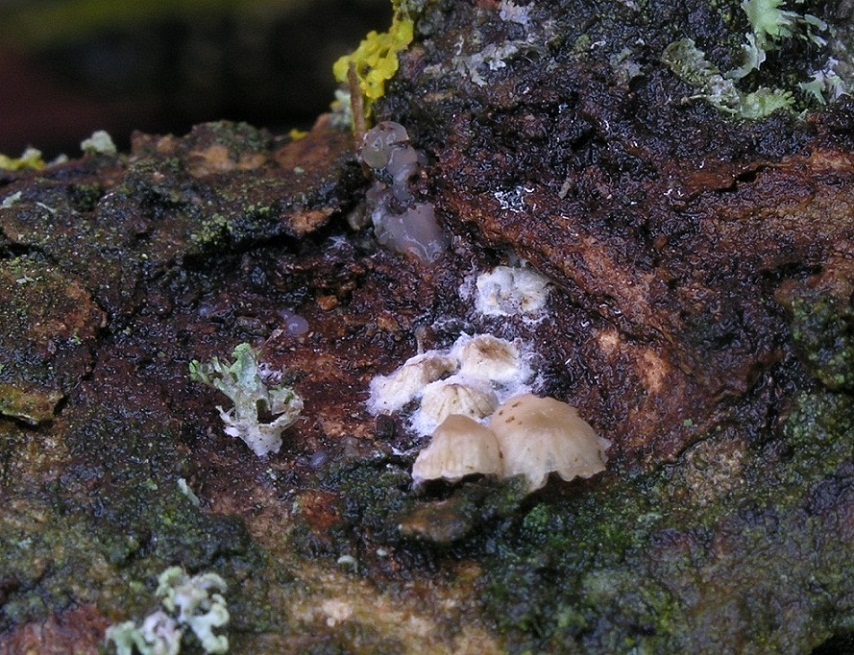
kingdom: Fungi
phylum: Basidiomycota
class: Agaricomycetes
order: Agaricales
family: Porotheleaceae
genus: Phloeomana
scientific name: Phloeomana hiemalis
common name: sen huesvamp
